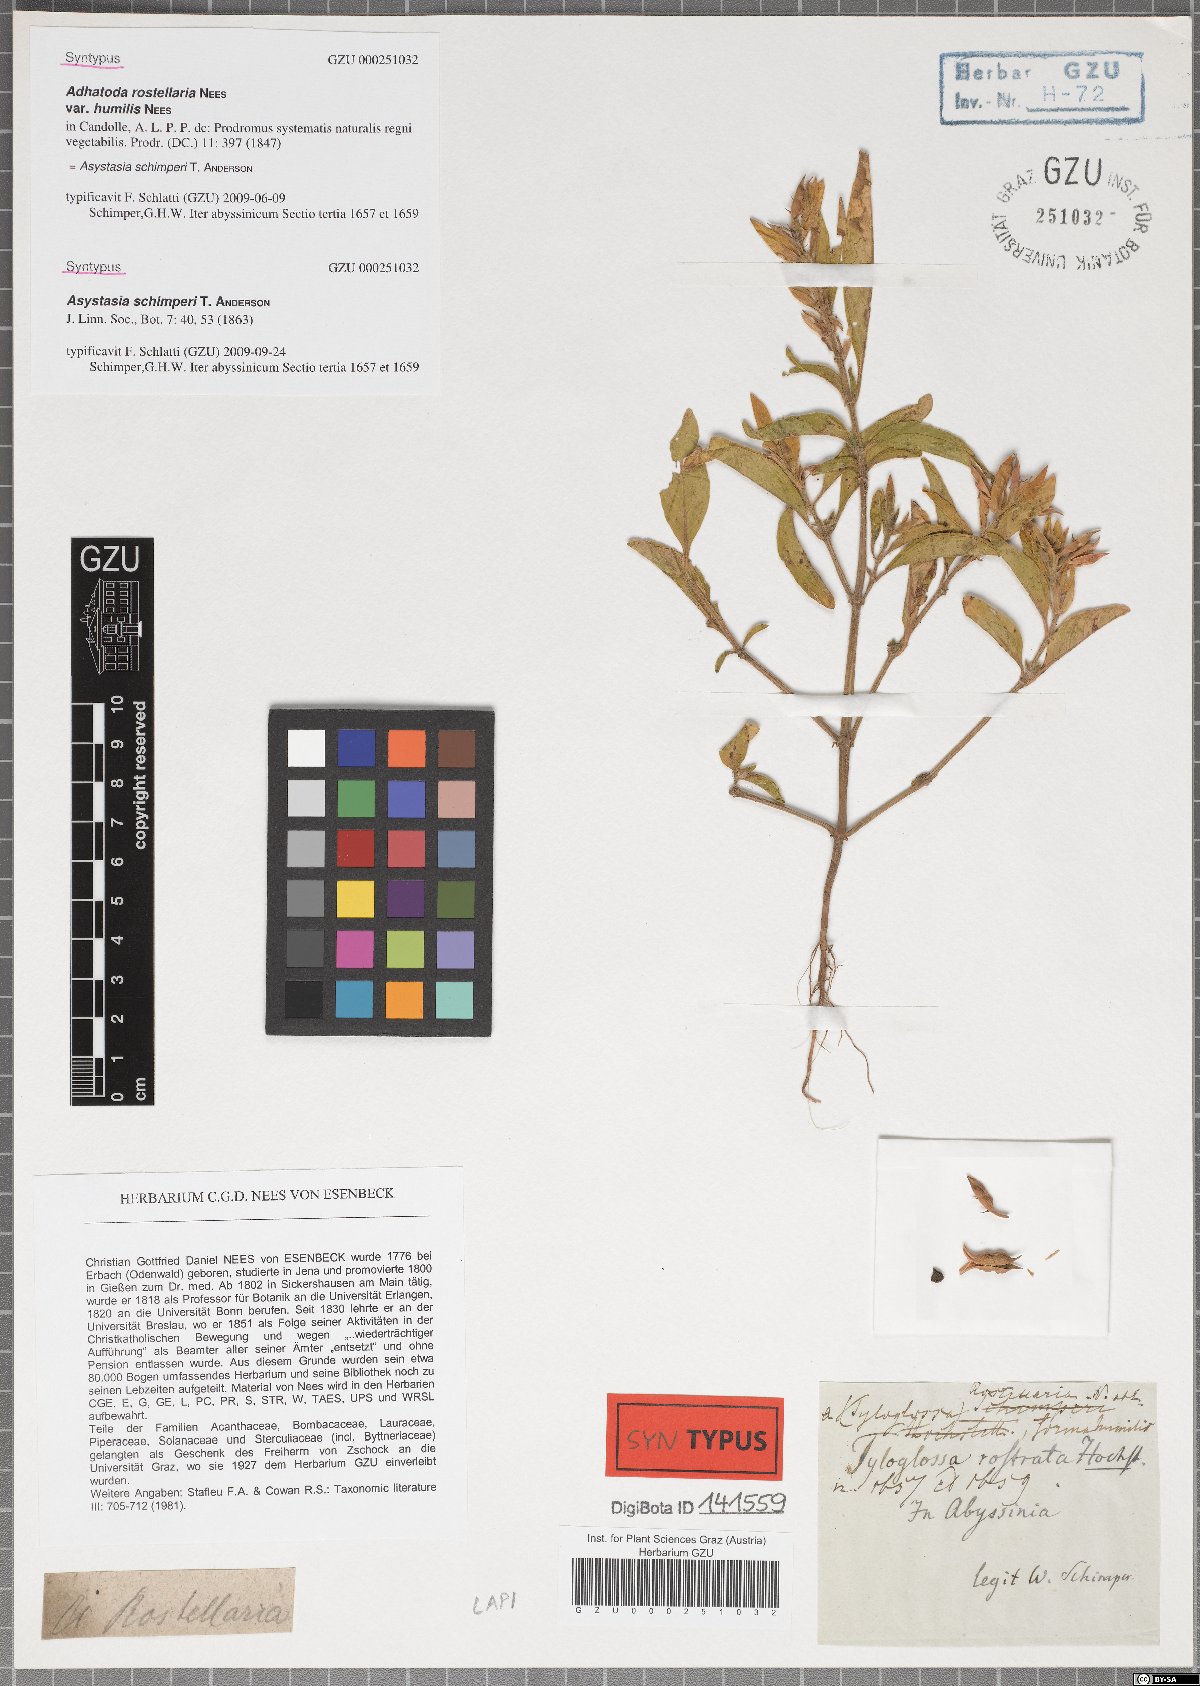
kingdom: Plantae
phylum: Tracheophyta
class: Magnoliopsida
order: Lamiales
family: Acanthaceae
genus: Justicia
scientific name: Justicia ladanoides
